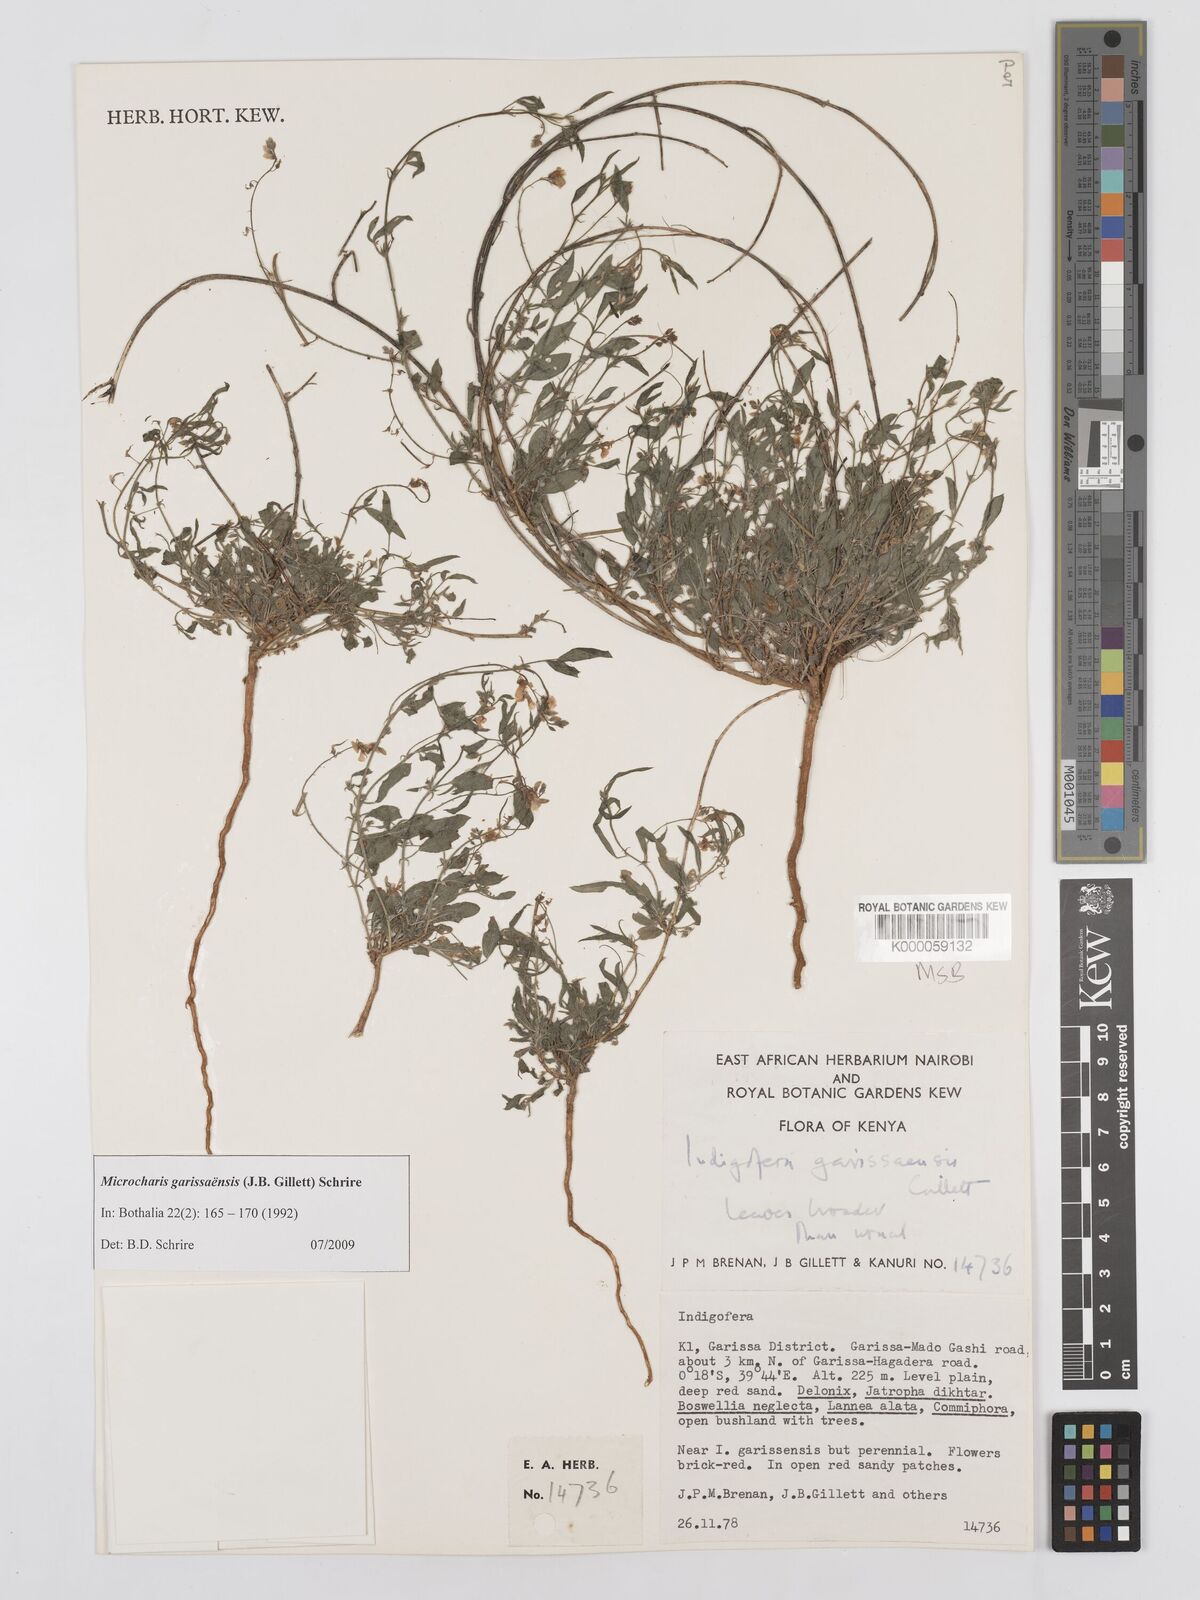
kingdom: Plantae
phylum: Tracheophyta
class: Magnoliopsida
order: Fabales
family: Fabaceae
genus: Microcharis
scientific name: Microcharis garissaensis
